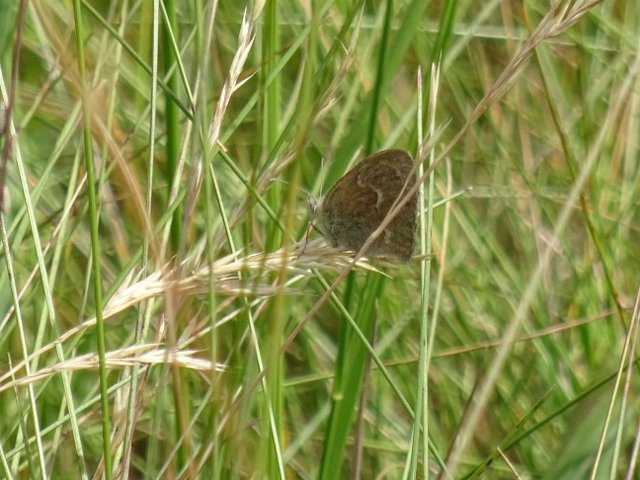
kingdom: Animalia
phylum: Arthropoda
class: Insecta
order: Lepidoptera
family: Nymphalidae
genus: Coenonympha
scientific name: Coenonympha tullia
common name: Large Heath
